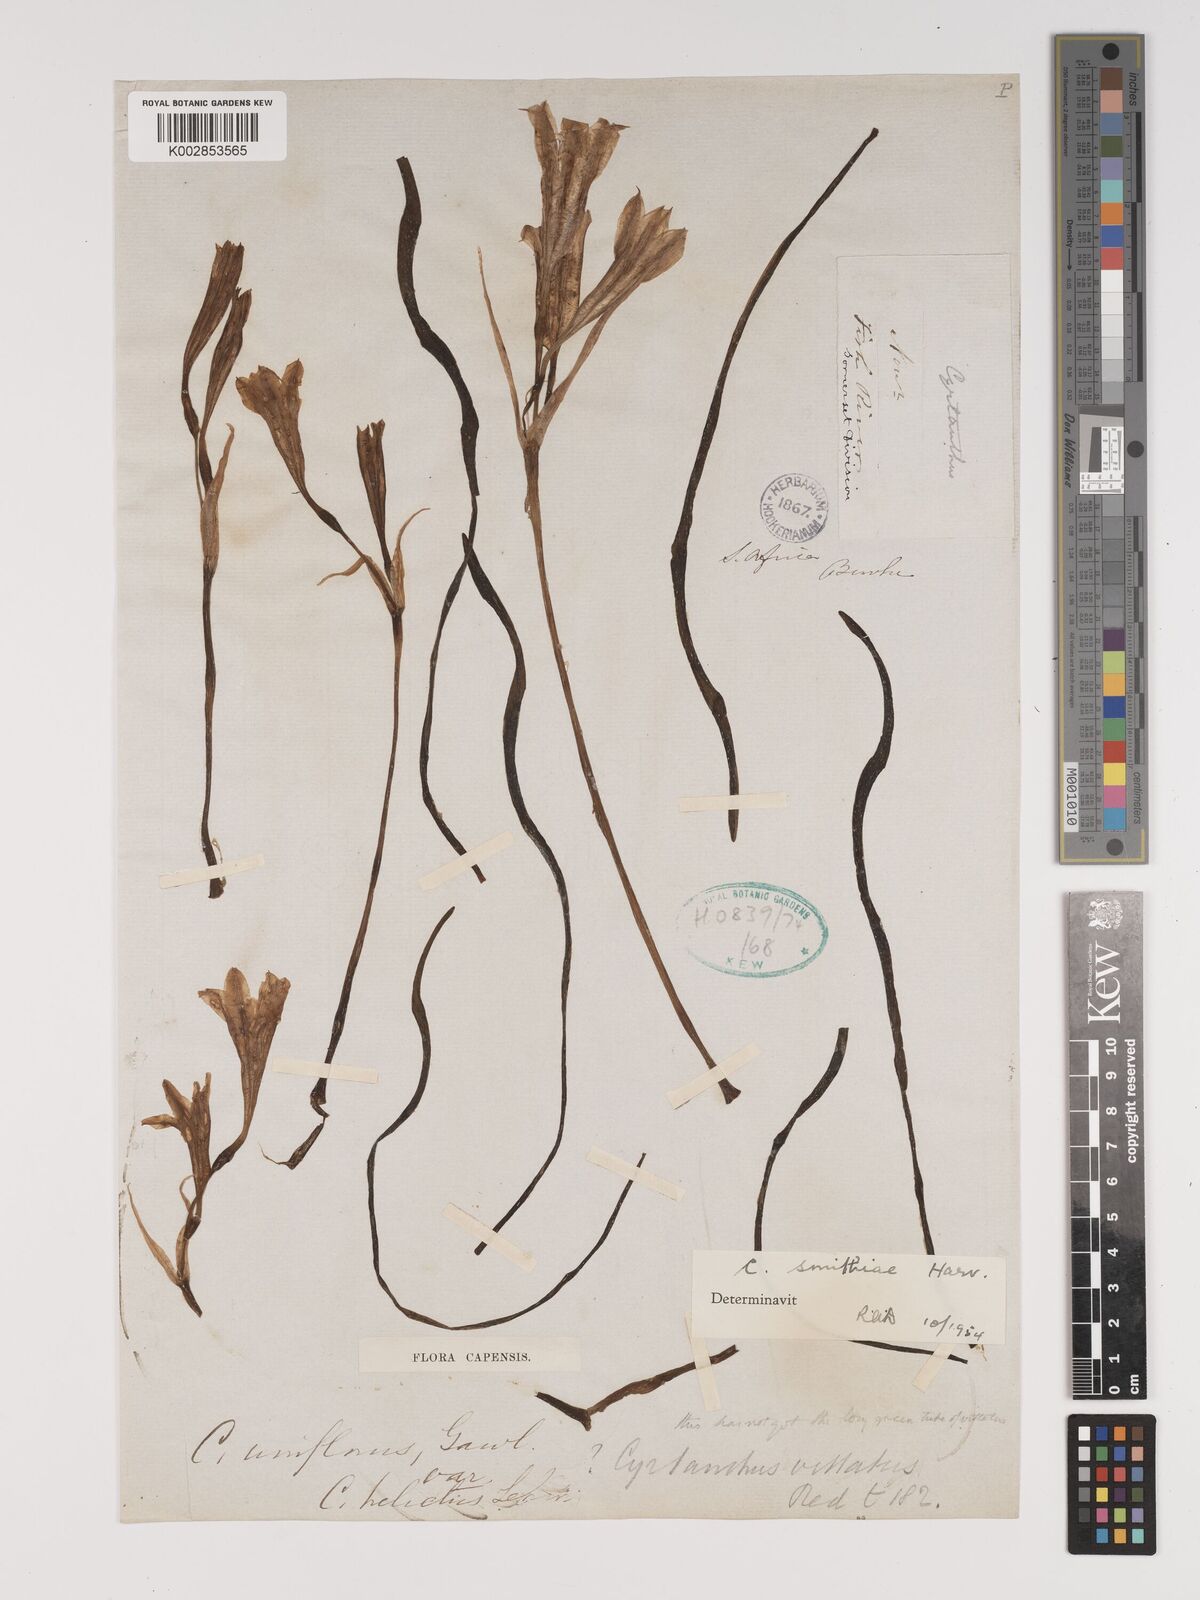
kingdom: Plantae
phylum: Tracheophyta
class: Liliopsida
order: Asparagales
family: Amaryllidaceae
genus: Cyrtanthus
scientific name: Cyrtanthus smithiae
